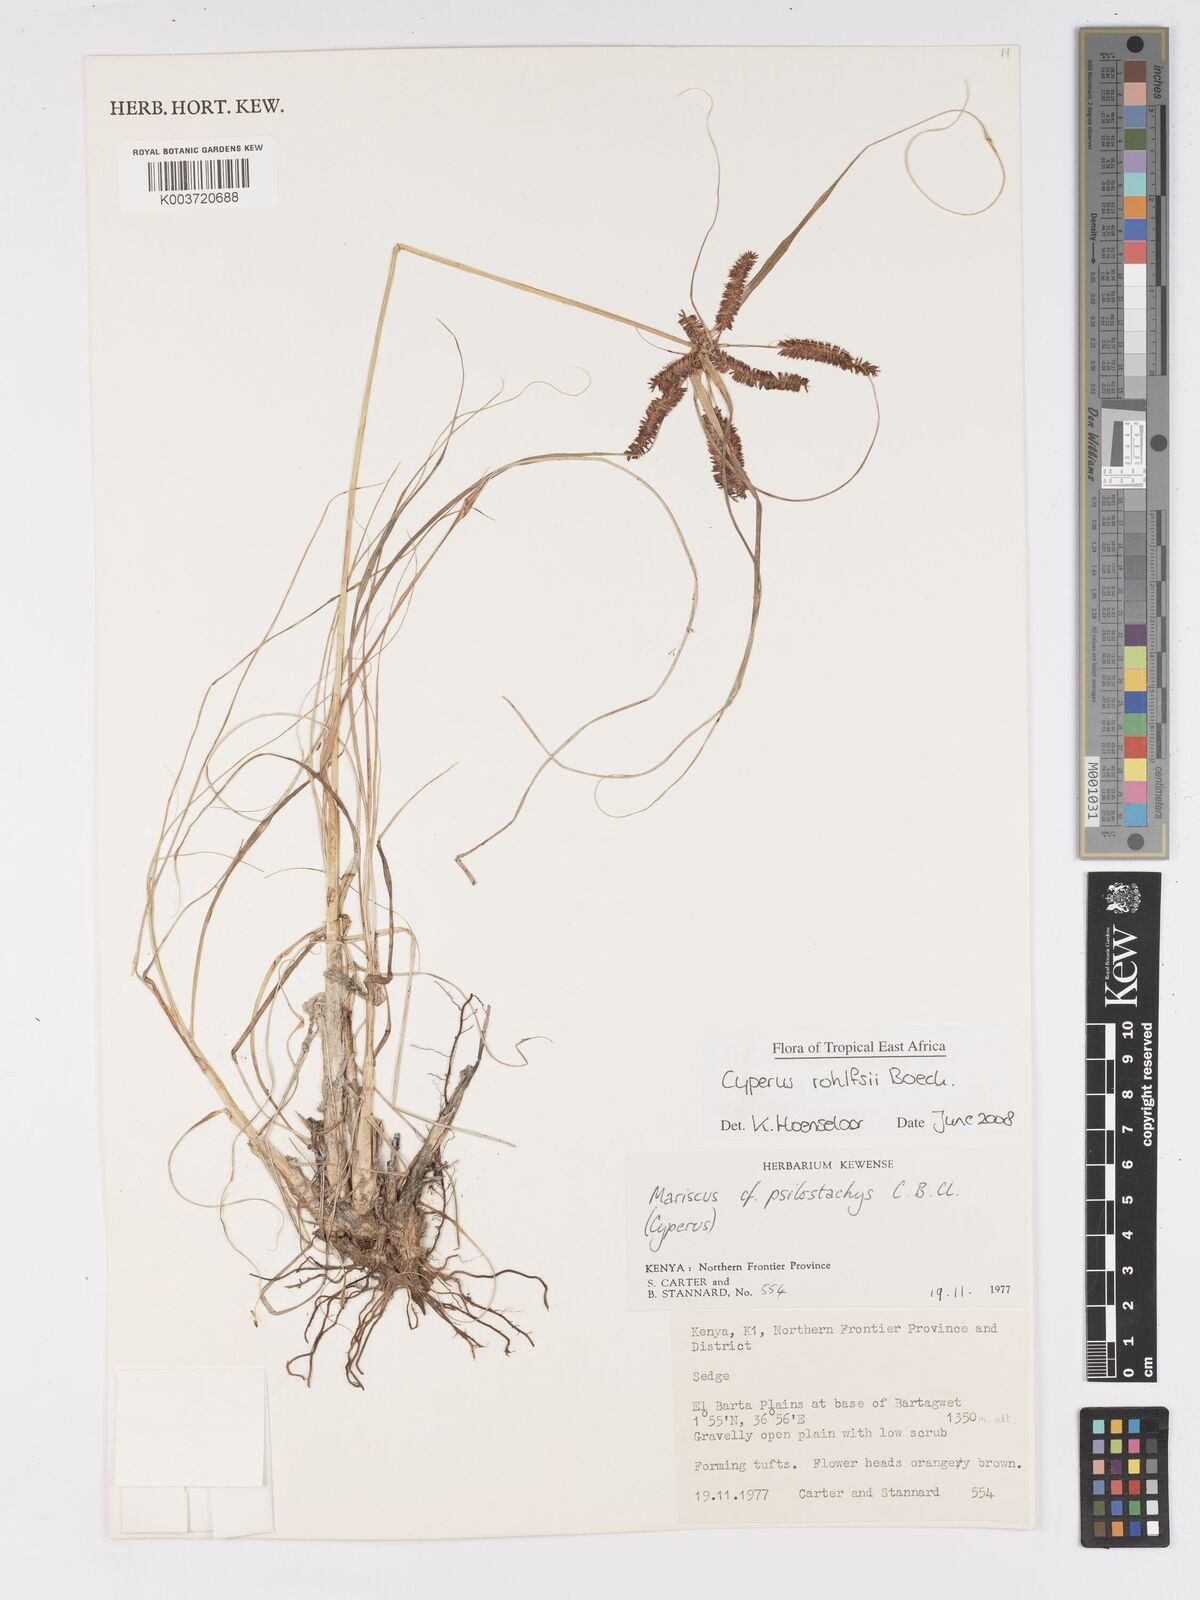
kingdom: Plantae
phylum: Tracheophyta
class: Liliopsida
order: Poales
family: Cyperaceae
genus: Cyperus
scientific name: Cyperus rohlfsii
